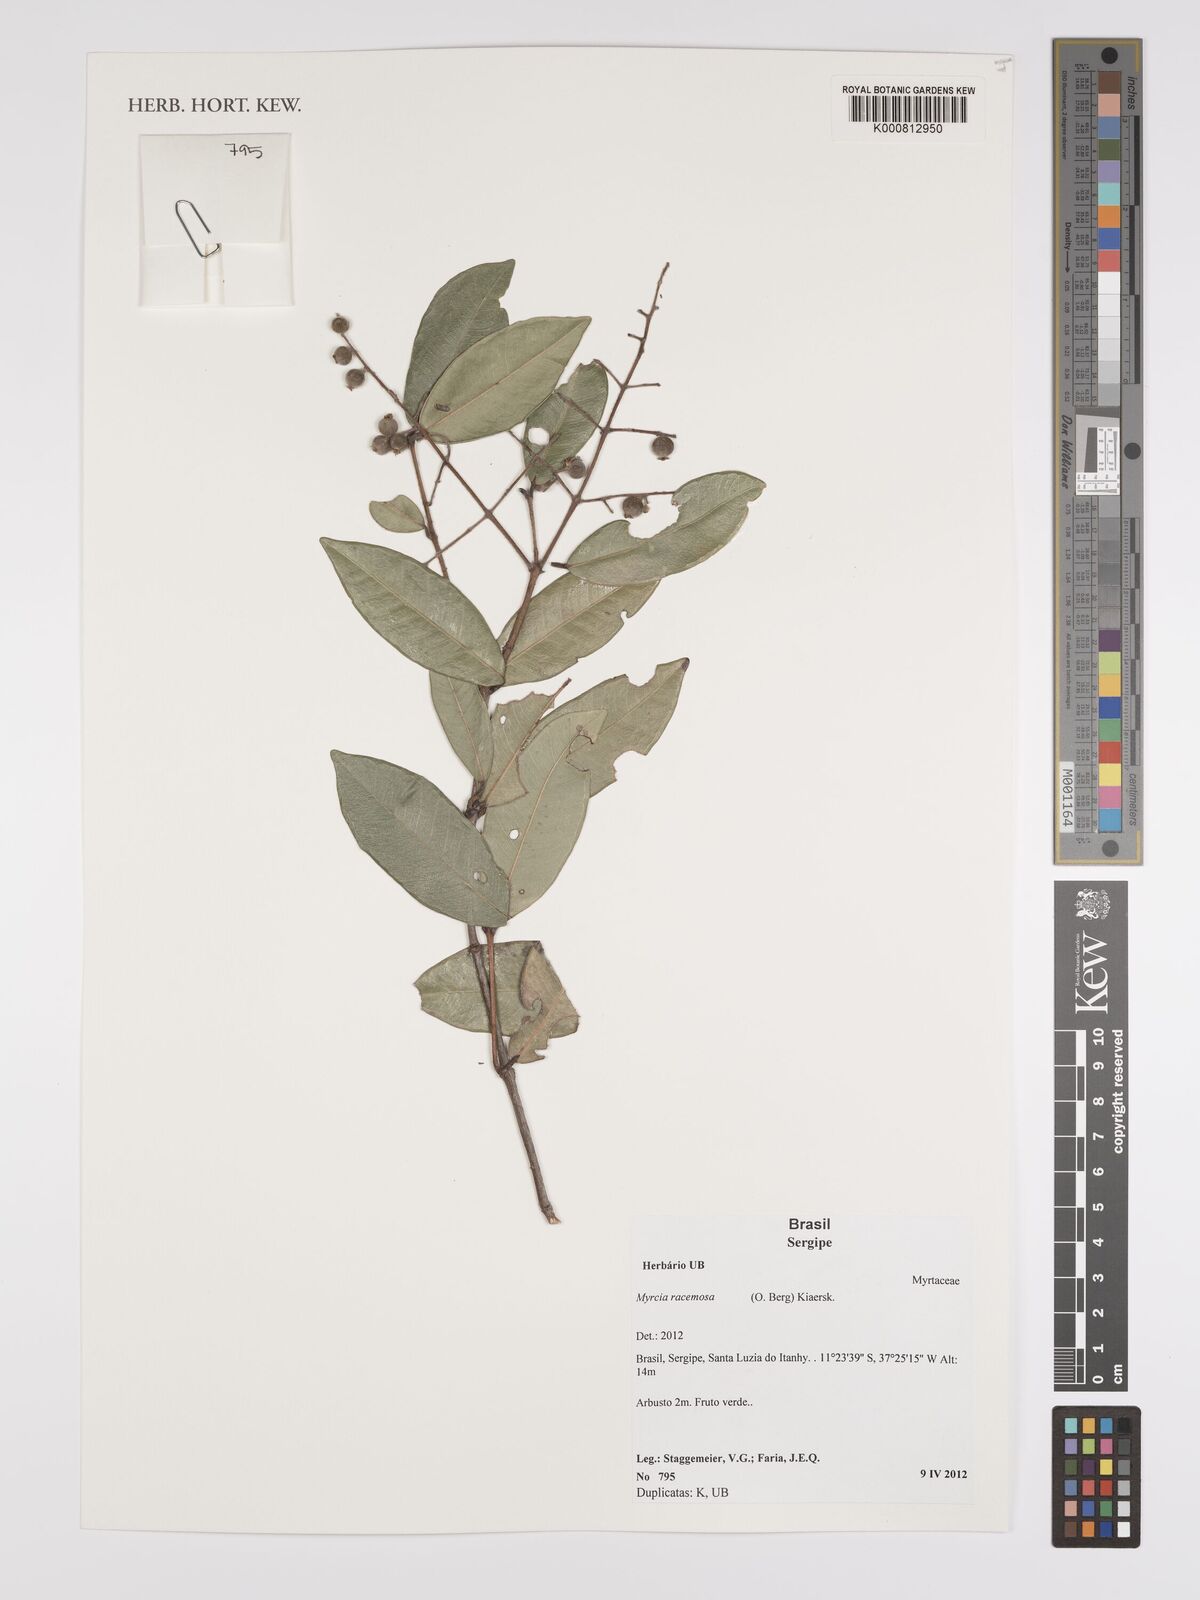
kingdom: Plantae
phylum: Tracheophyta
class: Magnoliopsida
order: Myrtales
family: Myrtaceae
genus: Myrcia
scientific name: Myrcia racemosa
